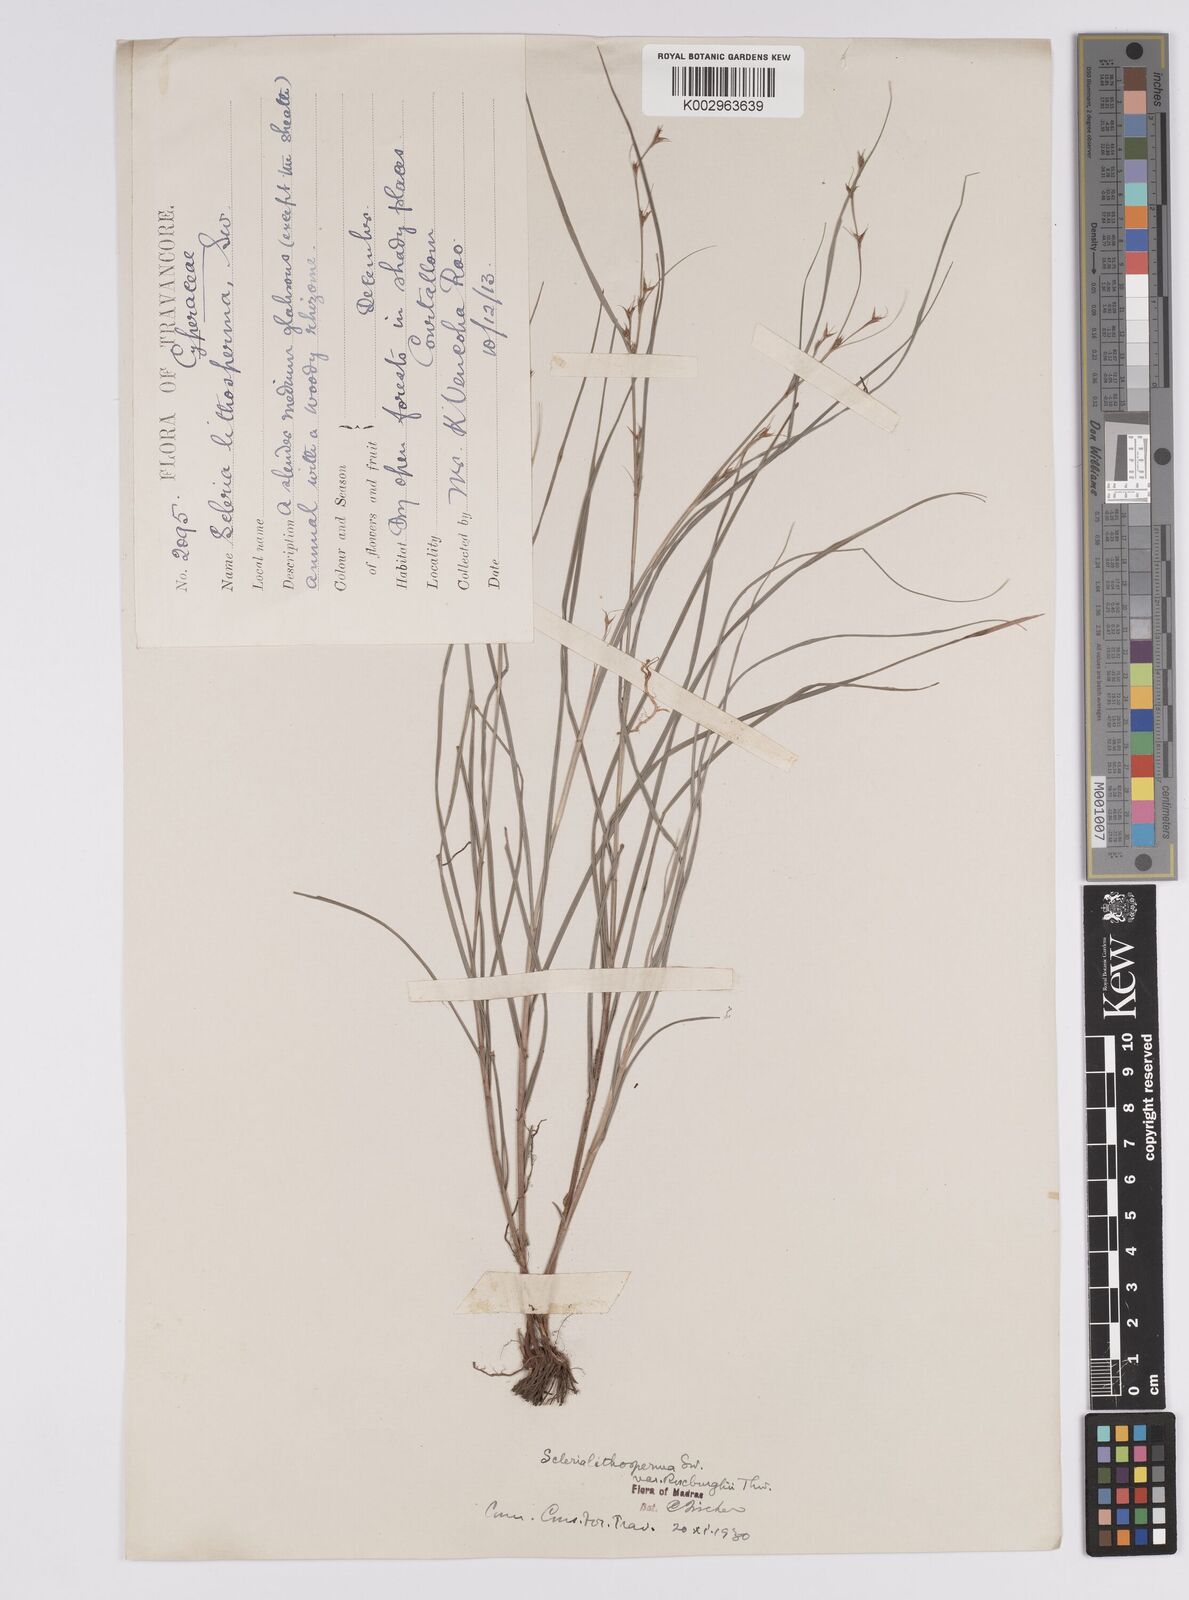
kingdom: Plantae
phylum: Tracheophyta
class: Liliopsida
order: Poales
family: Cyperaceae
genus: Scleria
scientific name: Scleria lithosperma
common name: Florida keys nut-rush
